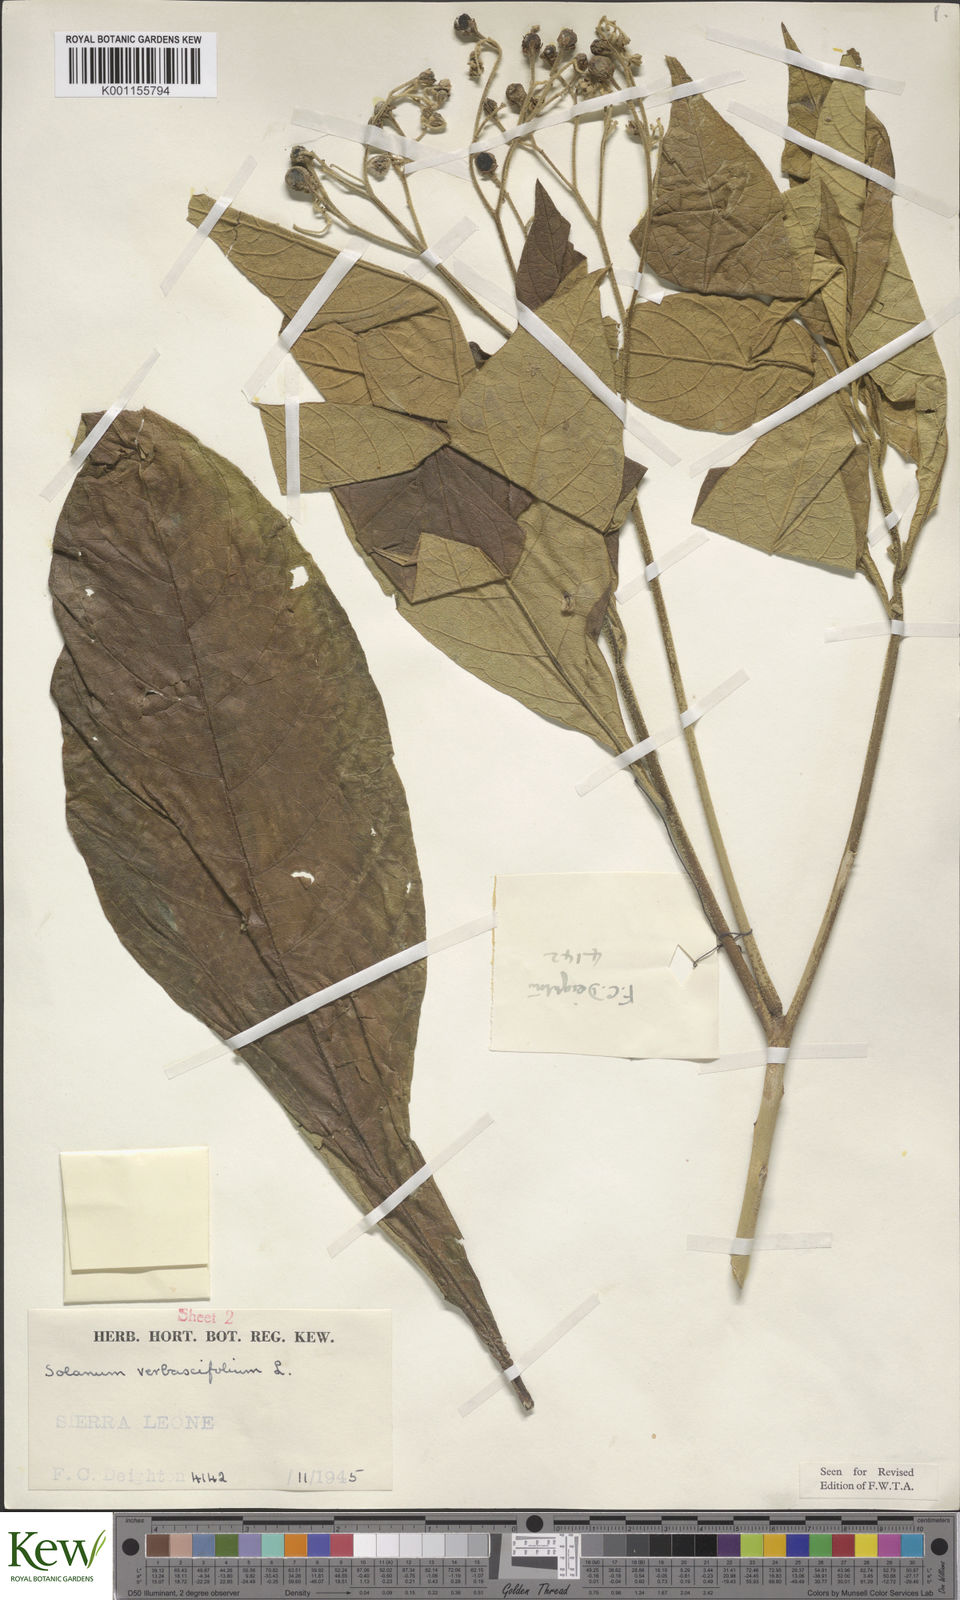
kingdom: Plantae
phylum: Tracheophyta
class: Magnoliopsida
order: Solanales
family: Solanaceae
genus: Solanum
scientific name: Solanum rugosum
